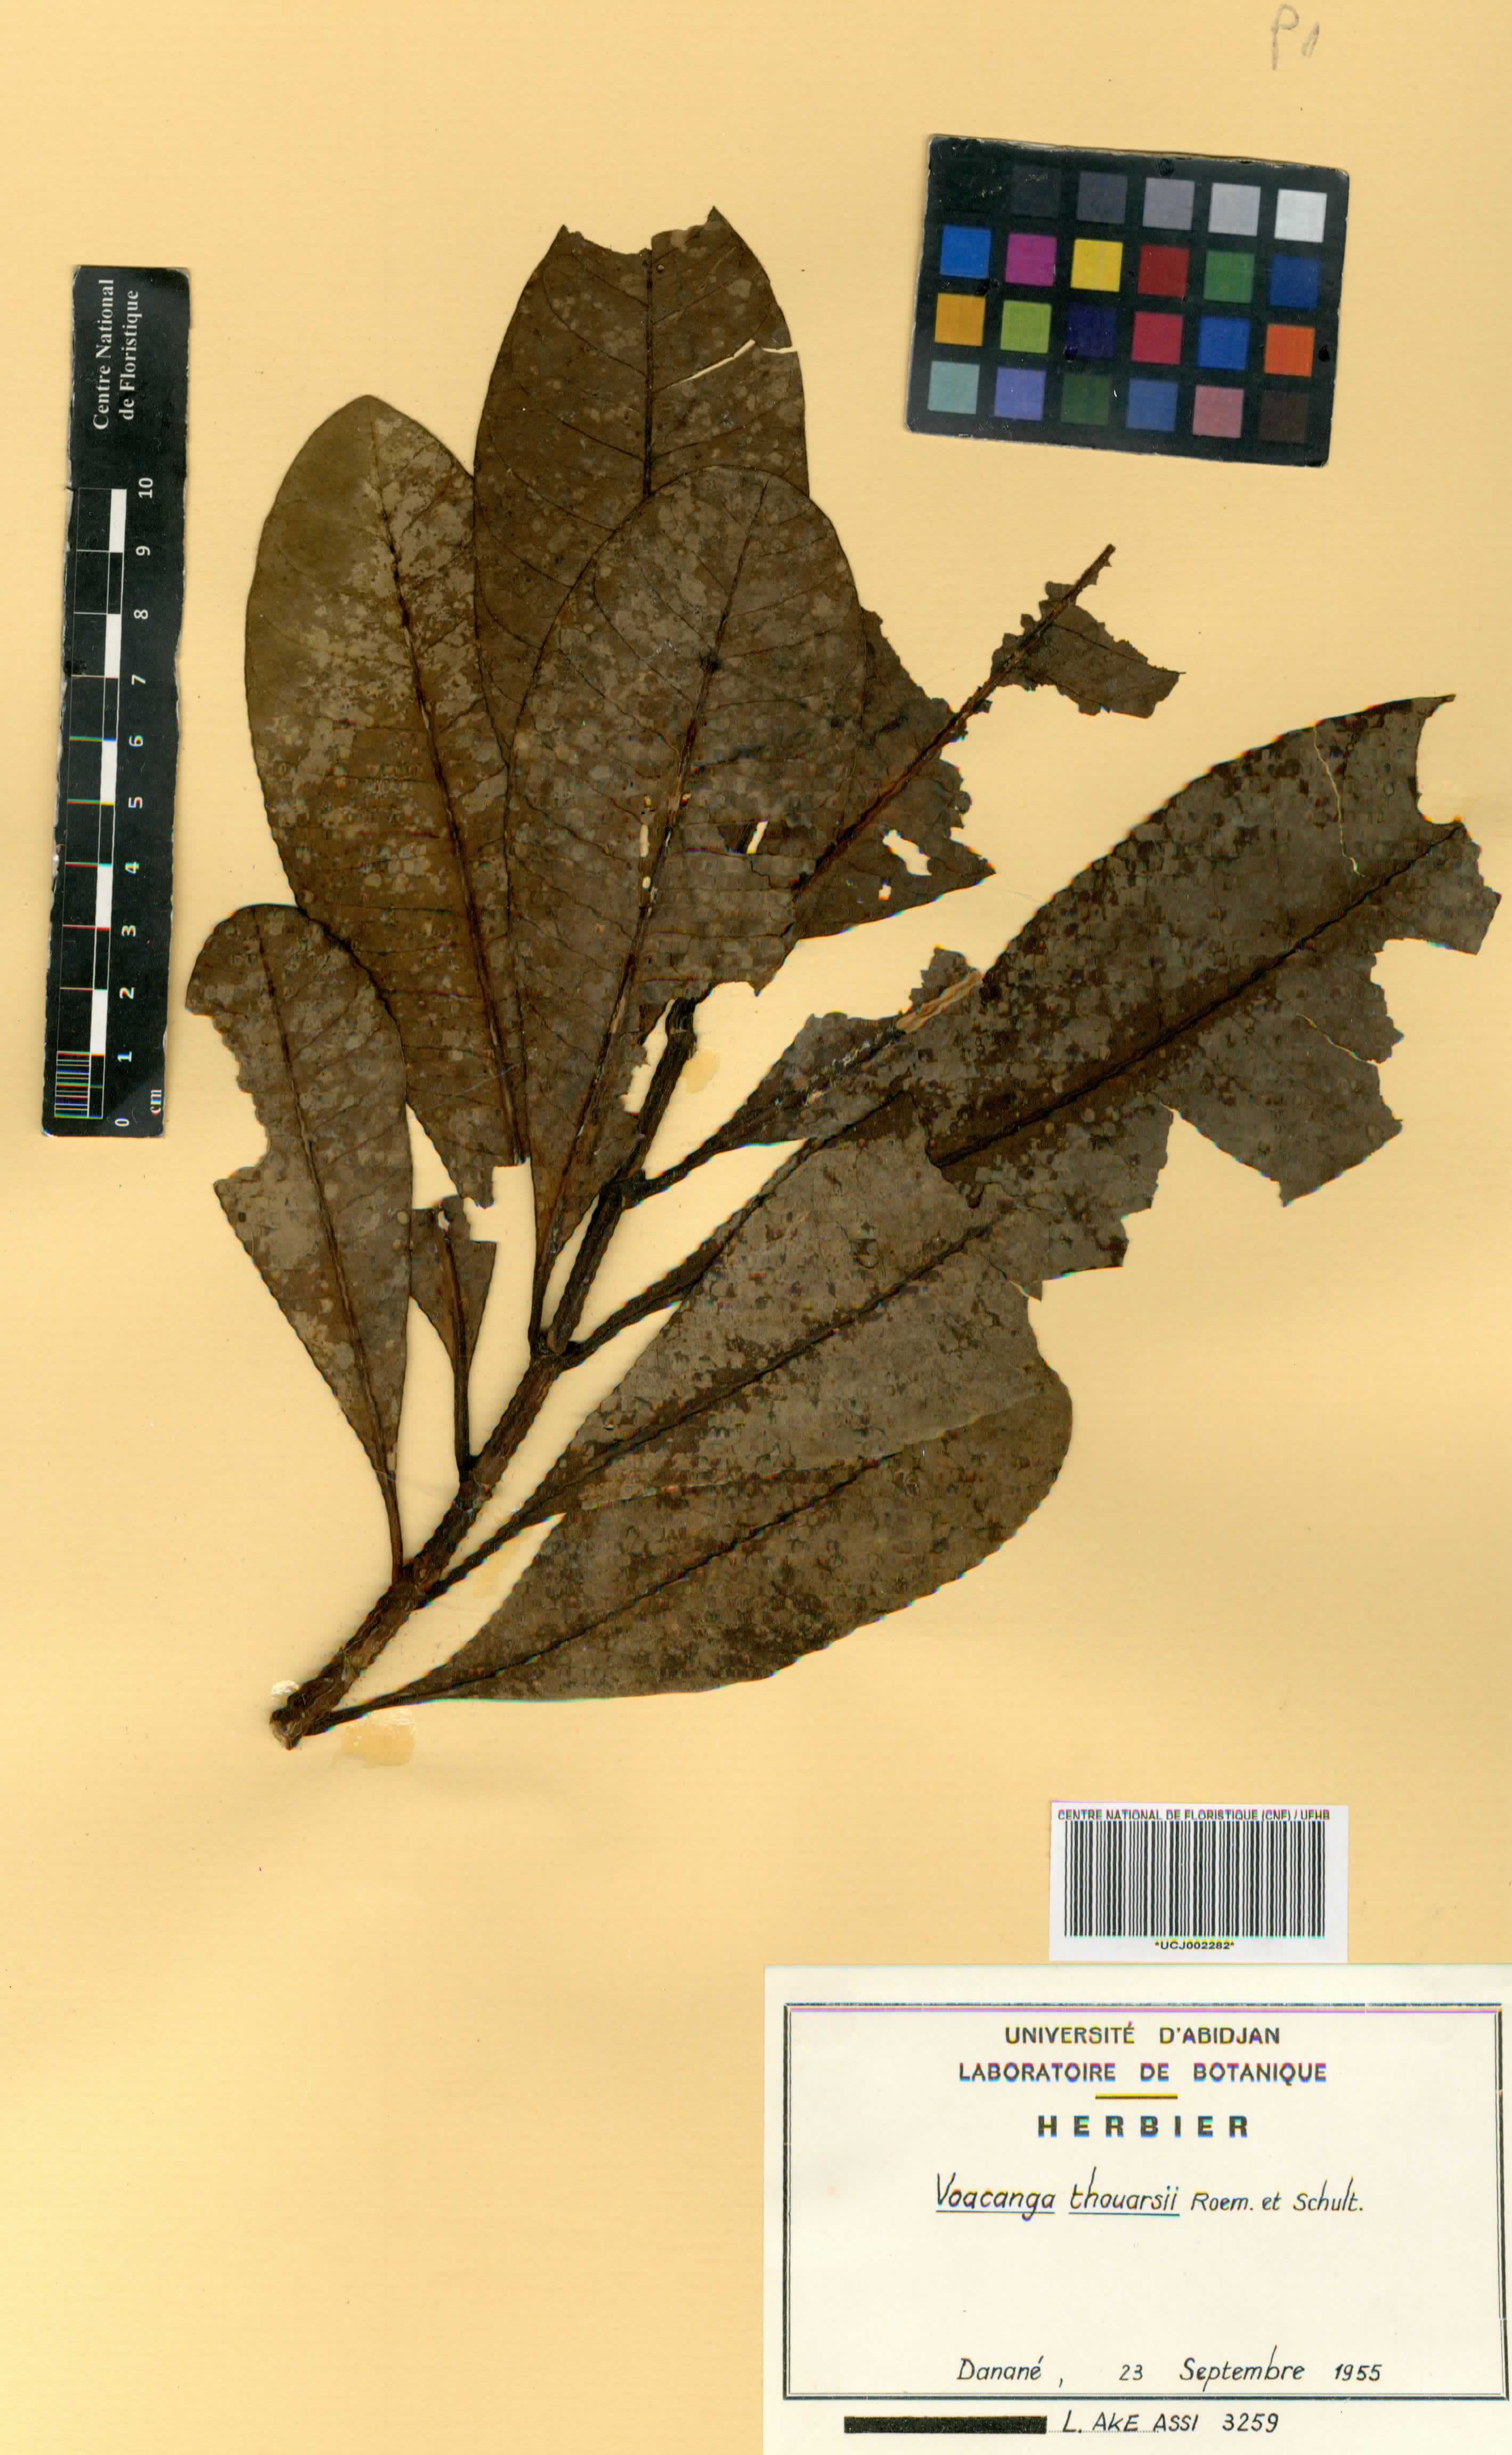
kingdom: Plantae
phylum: Tracheophyta
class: Magnoliopsida
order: Gentianales
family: Apocynaceae
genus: Voacanga
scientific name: Voacanga thouarsii
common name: Wild frangipani
